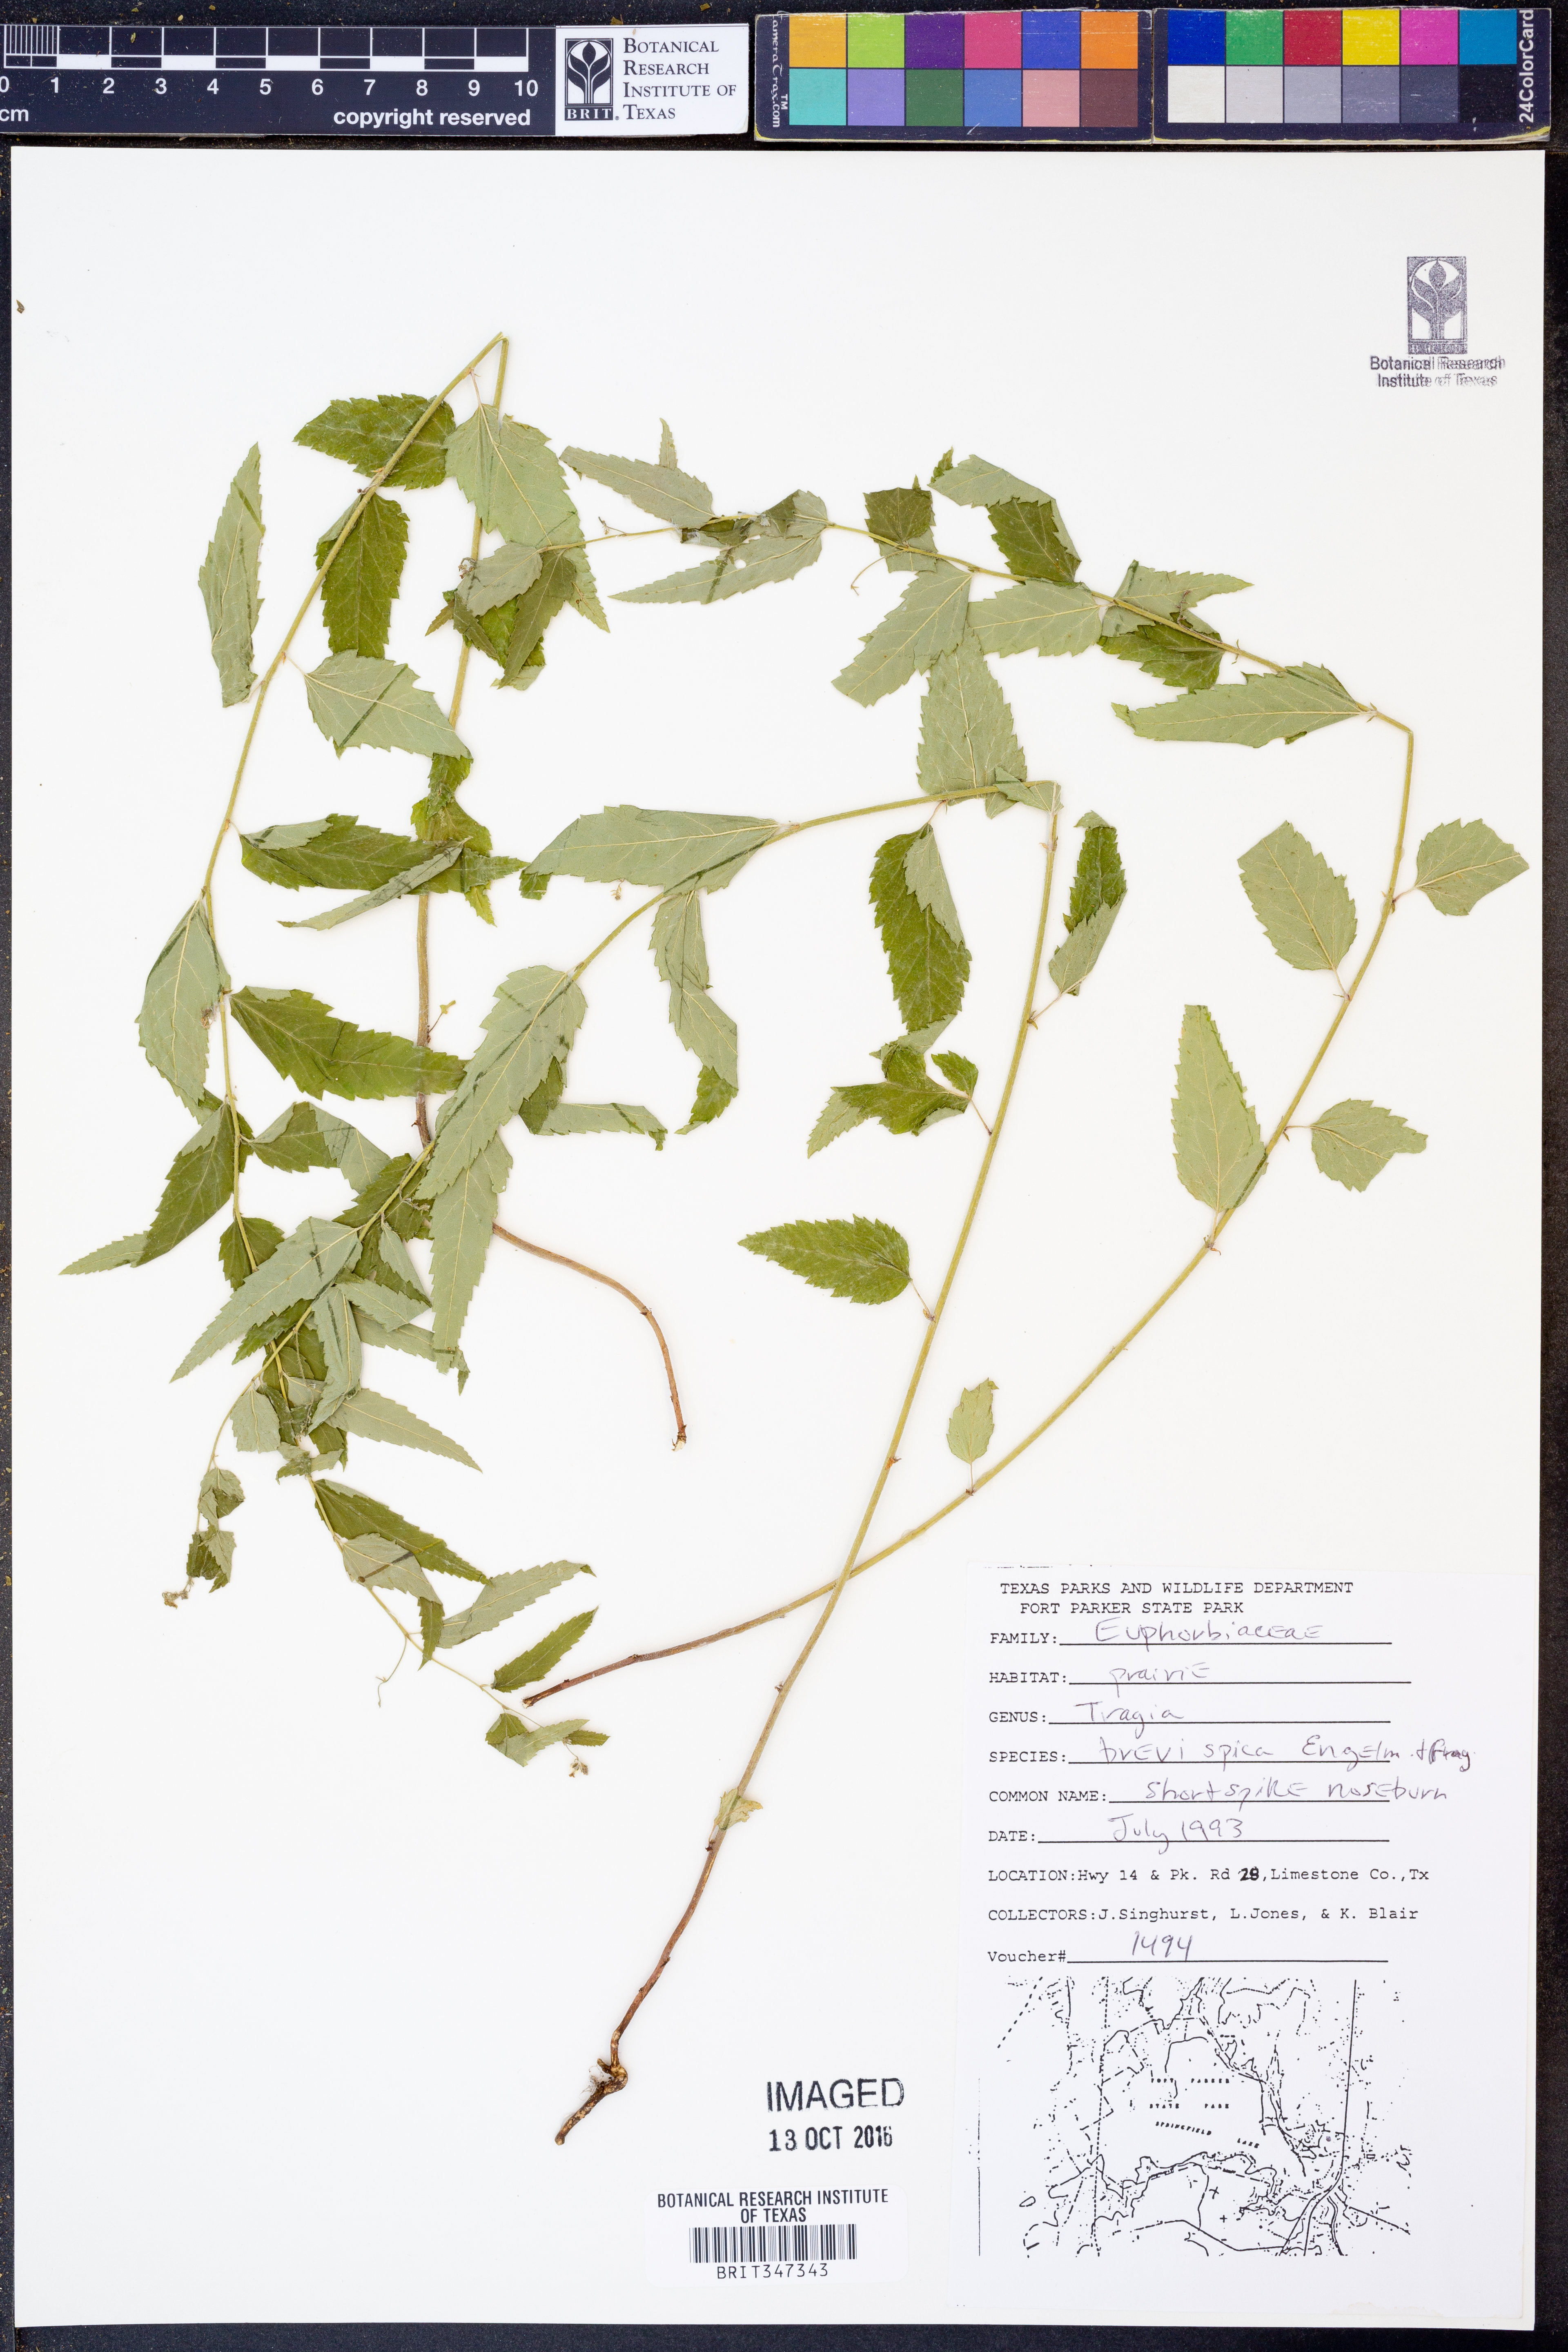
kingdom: Plantae
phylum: Tracheophyta
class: Magnoliopsida
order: Malpighiales
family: Euphorbiaceae
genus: Tragia
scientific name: Tragia brevispica
